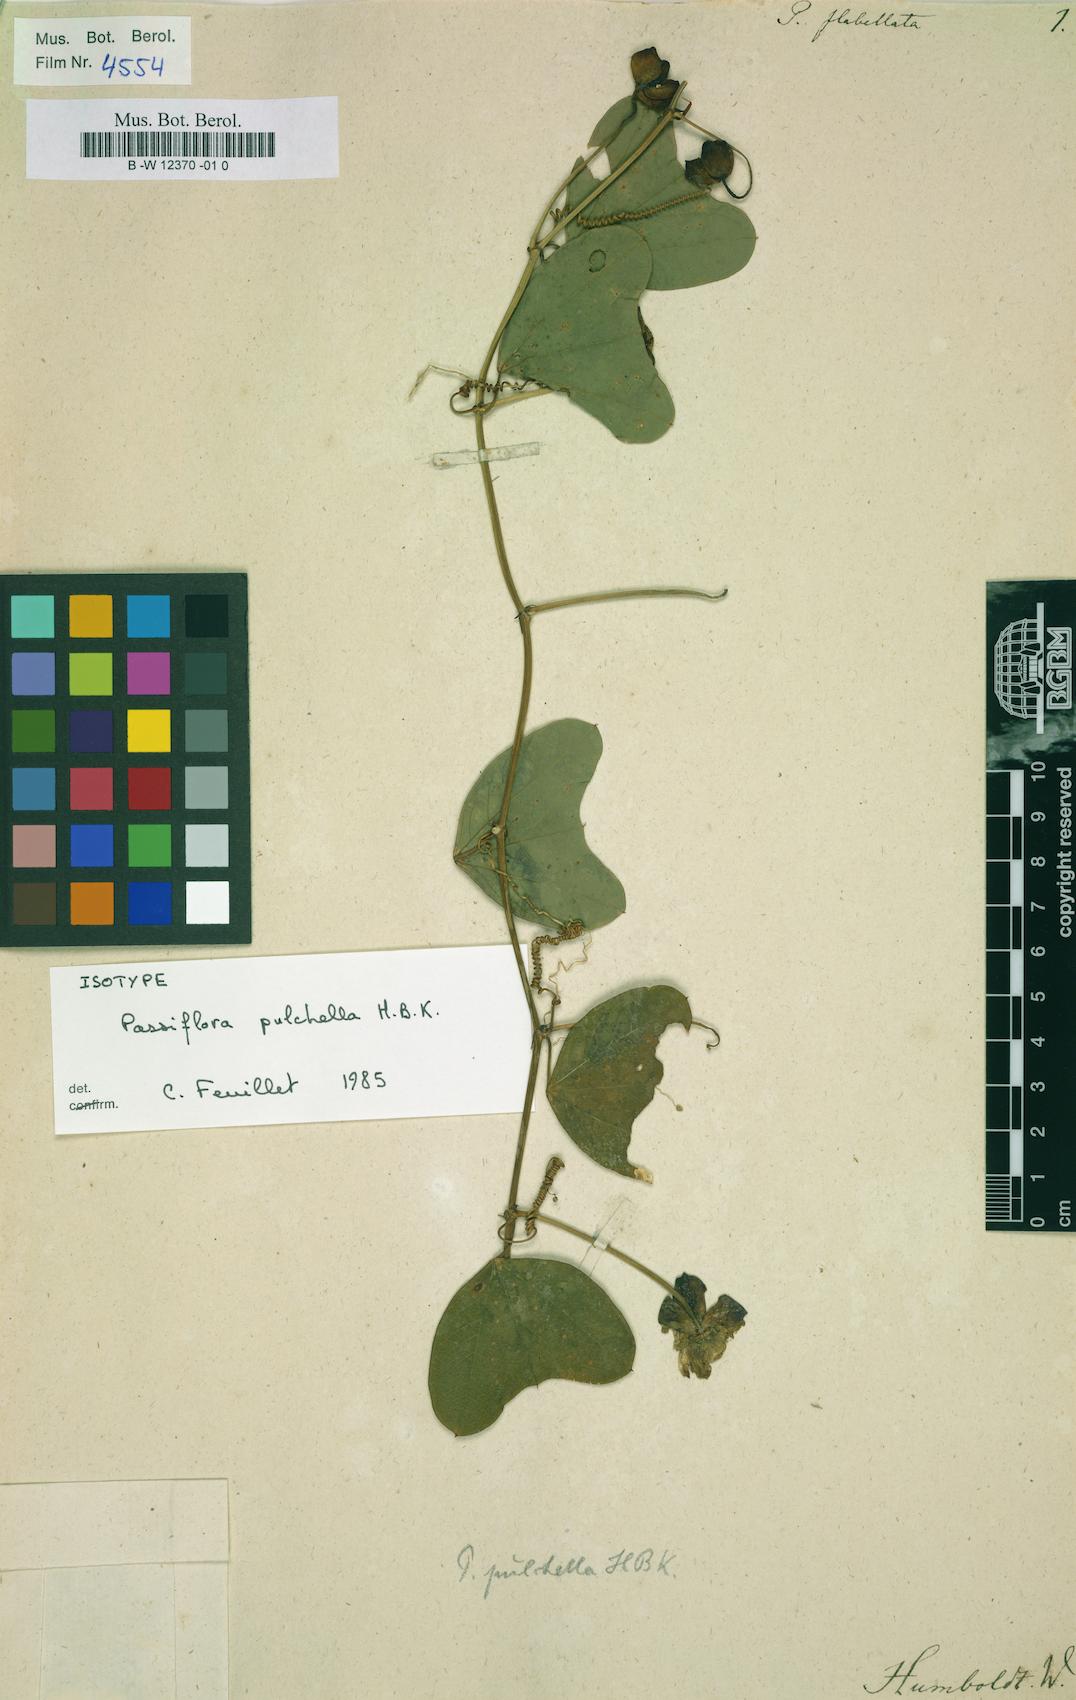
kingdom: Plantae
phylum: Tracheophyta
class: Magnoliopsida
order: Malpighiales
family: Passifloraceae
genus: Passiflora
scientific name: Passiflora bicornis
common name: Wingleaf passionflower
